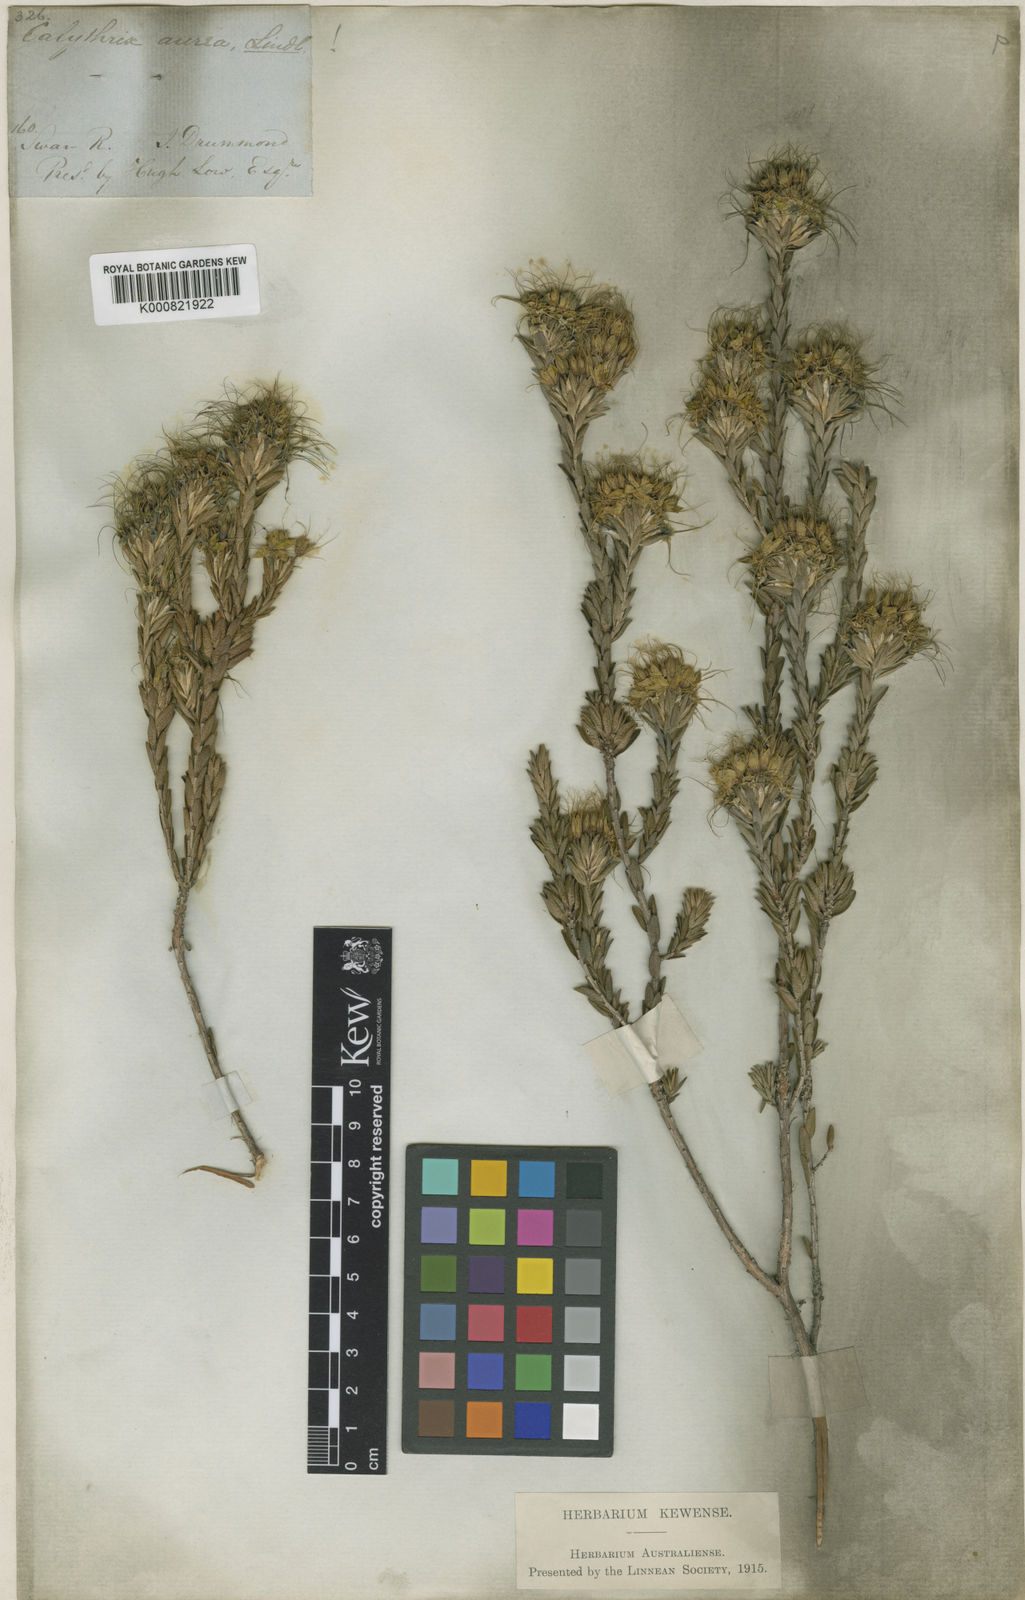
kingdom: Plantae
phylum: Tracheophyta
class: Magnoliopsida
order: Myrtales
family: Myrtaceae
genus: Calytrix
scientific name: Calytrix aurea
